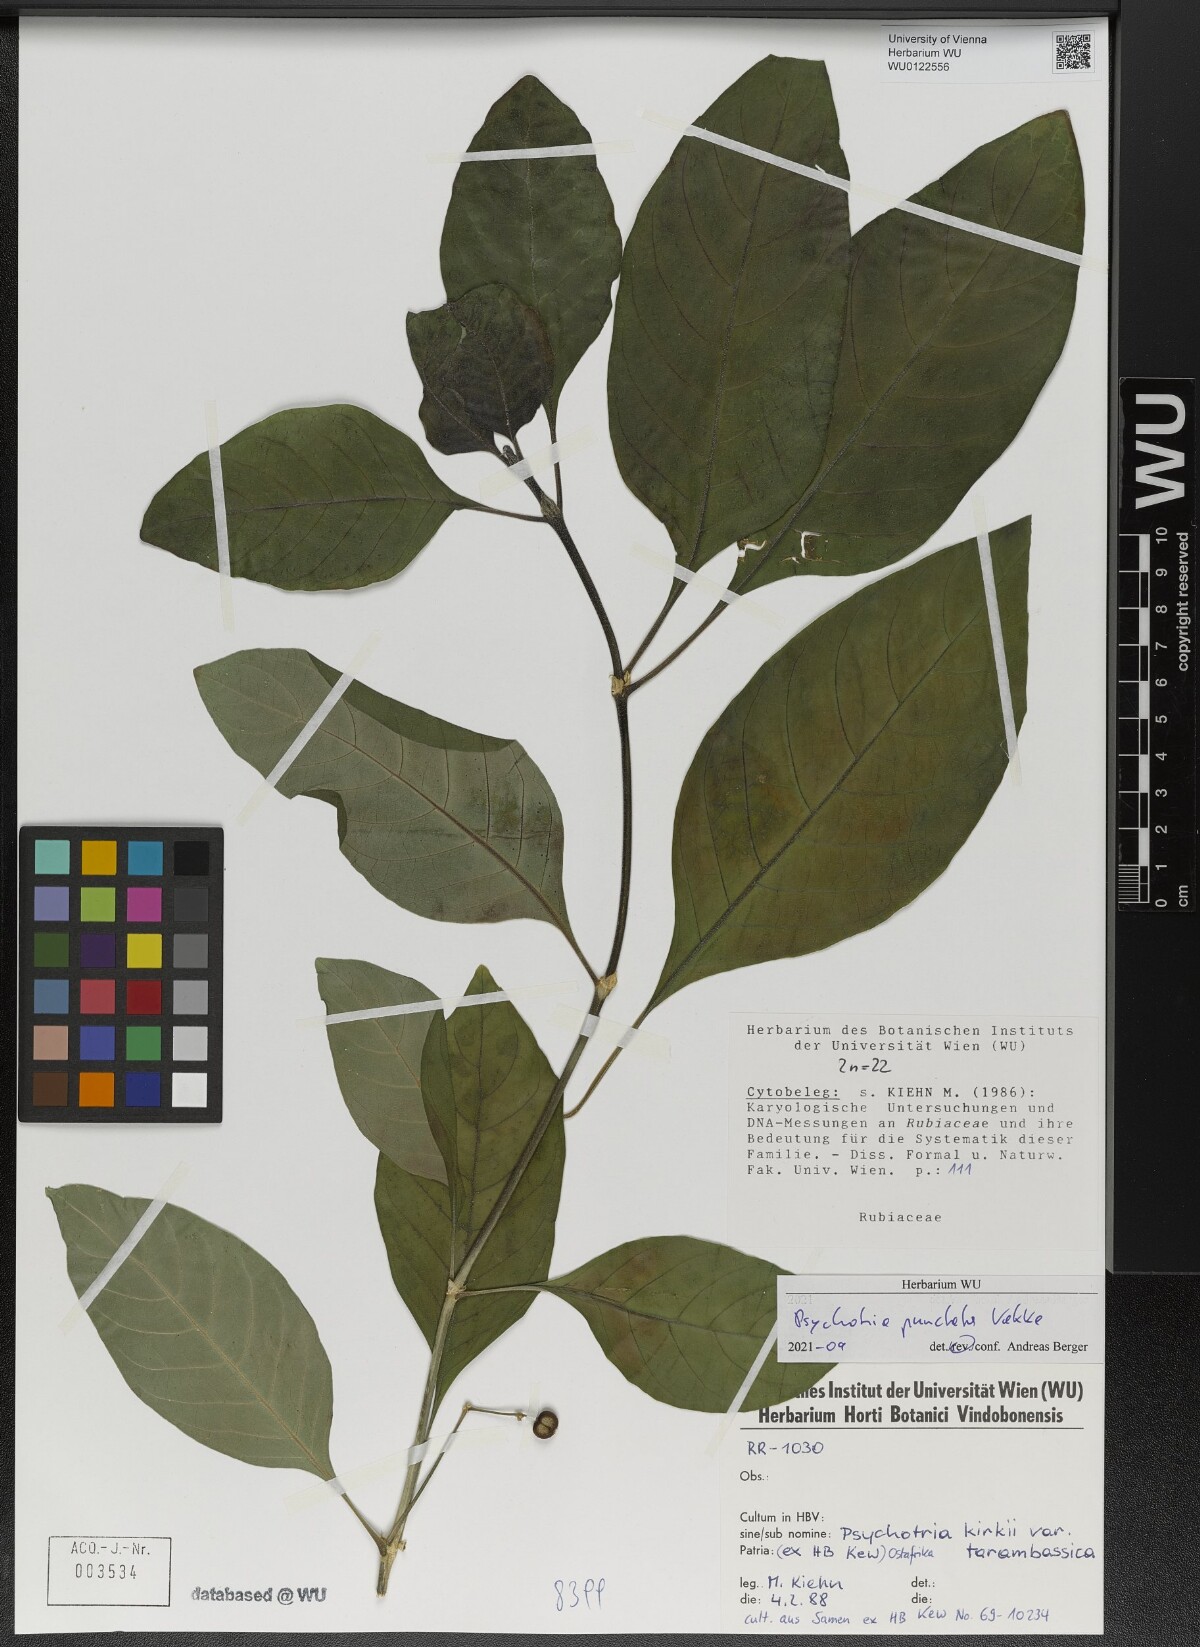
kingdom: Plantae
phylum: Tracheophyta
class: Magnoliopsida
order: Gentianales
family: Rubiaceae
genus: Psychotria
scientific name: Psychotria punctata
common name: Dotted wild coffee
